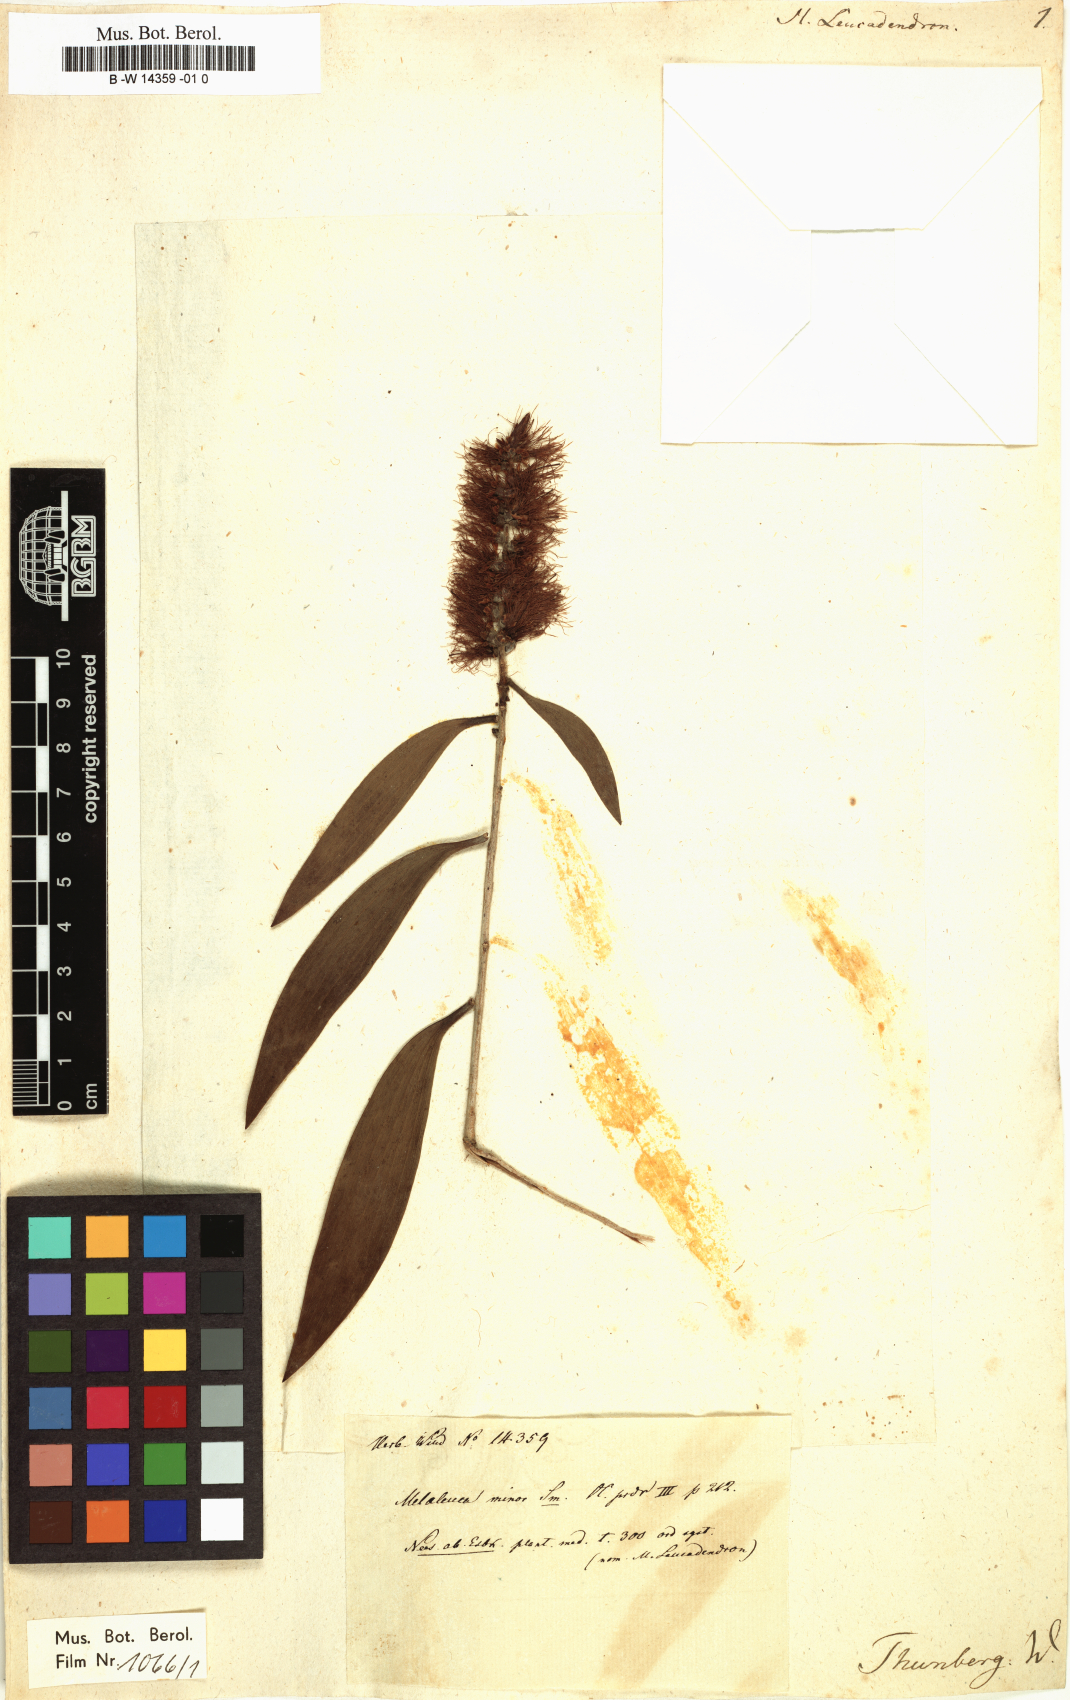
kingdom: Plantae
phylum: Tracheophyta
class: Magnoliopsida
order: Myrtales
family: Myrtaceae
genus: Melaleuca
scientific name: Melaleuca leucadendra
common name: Weeping paperbark
